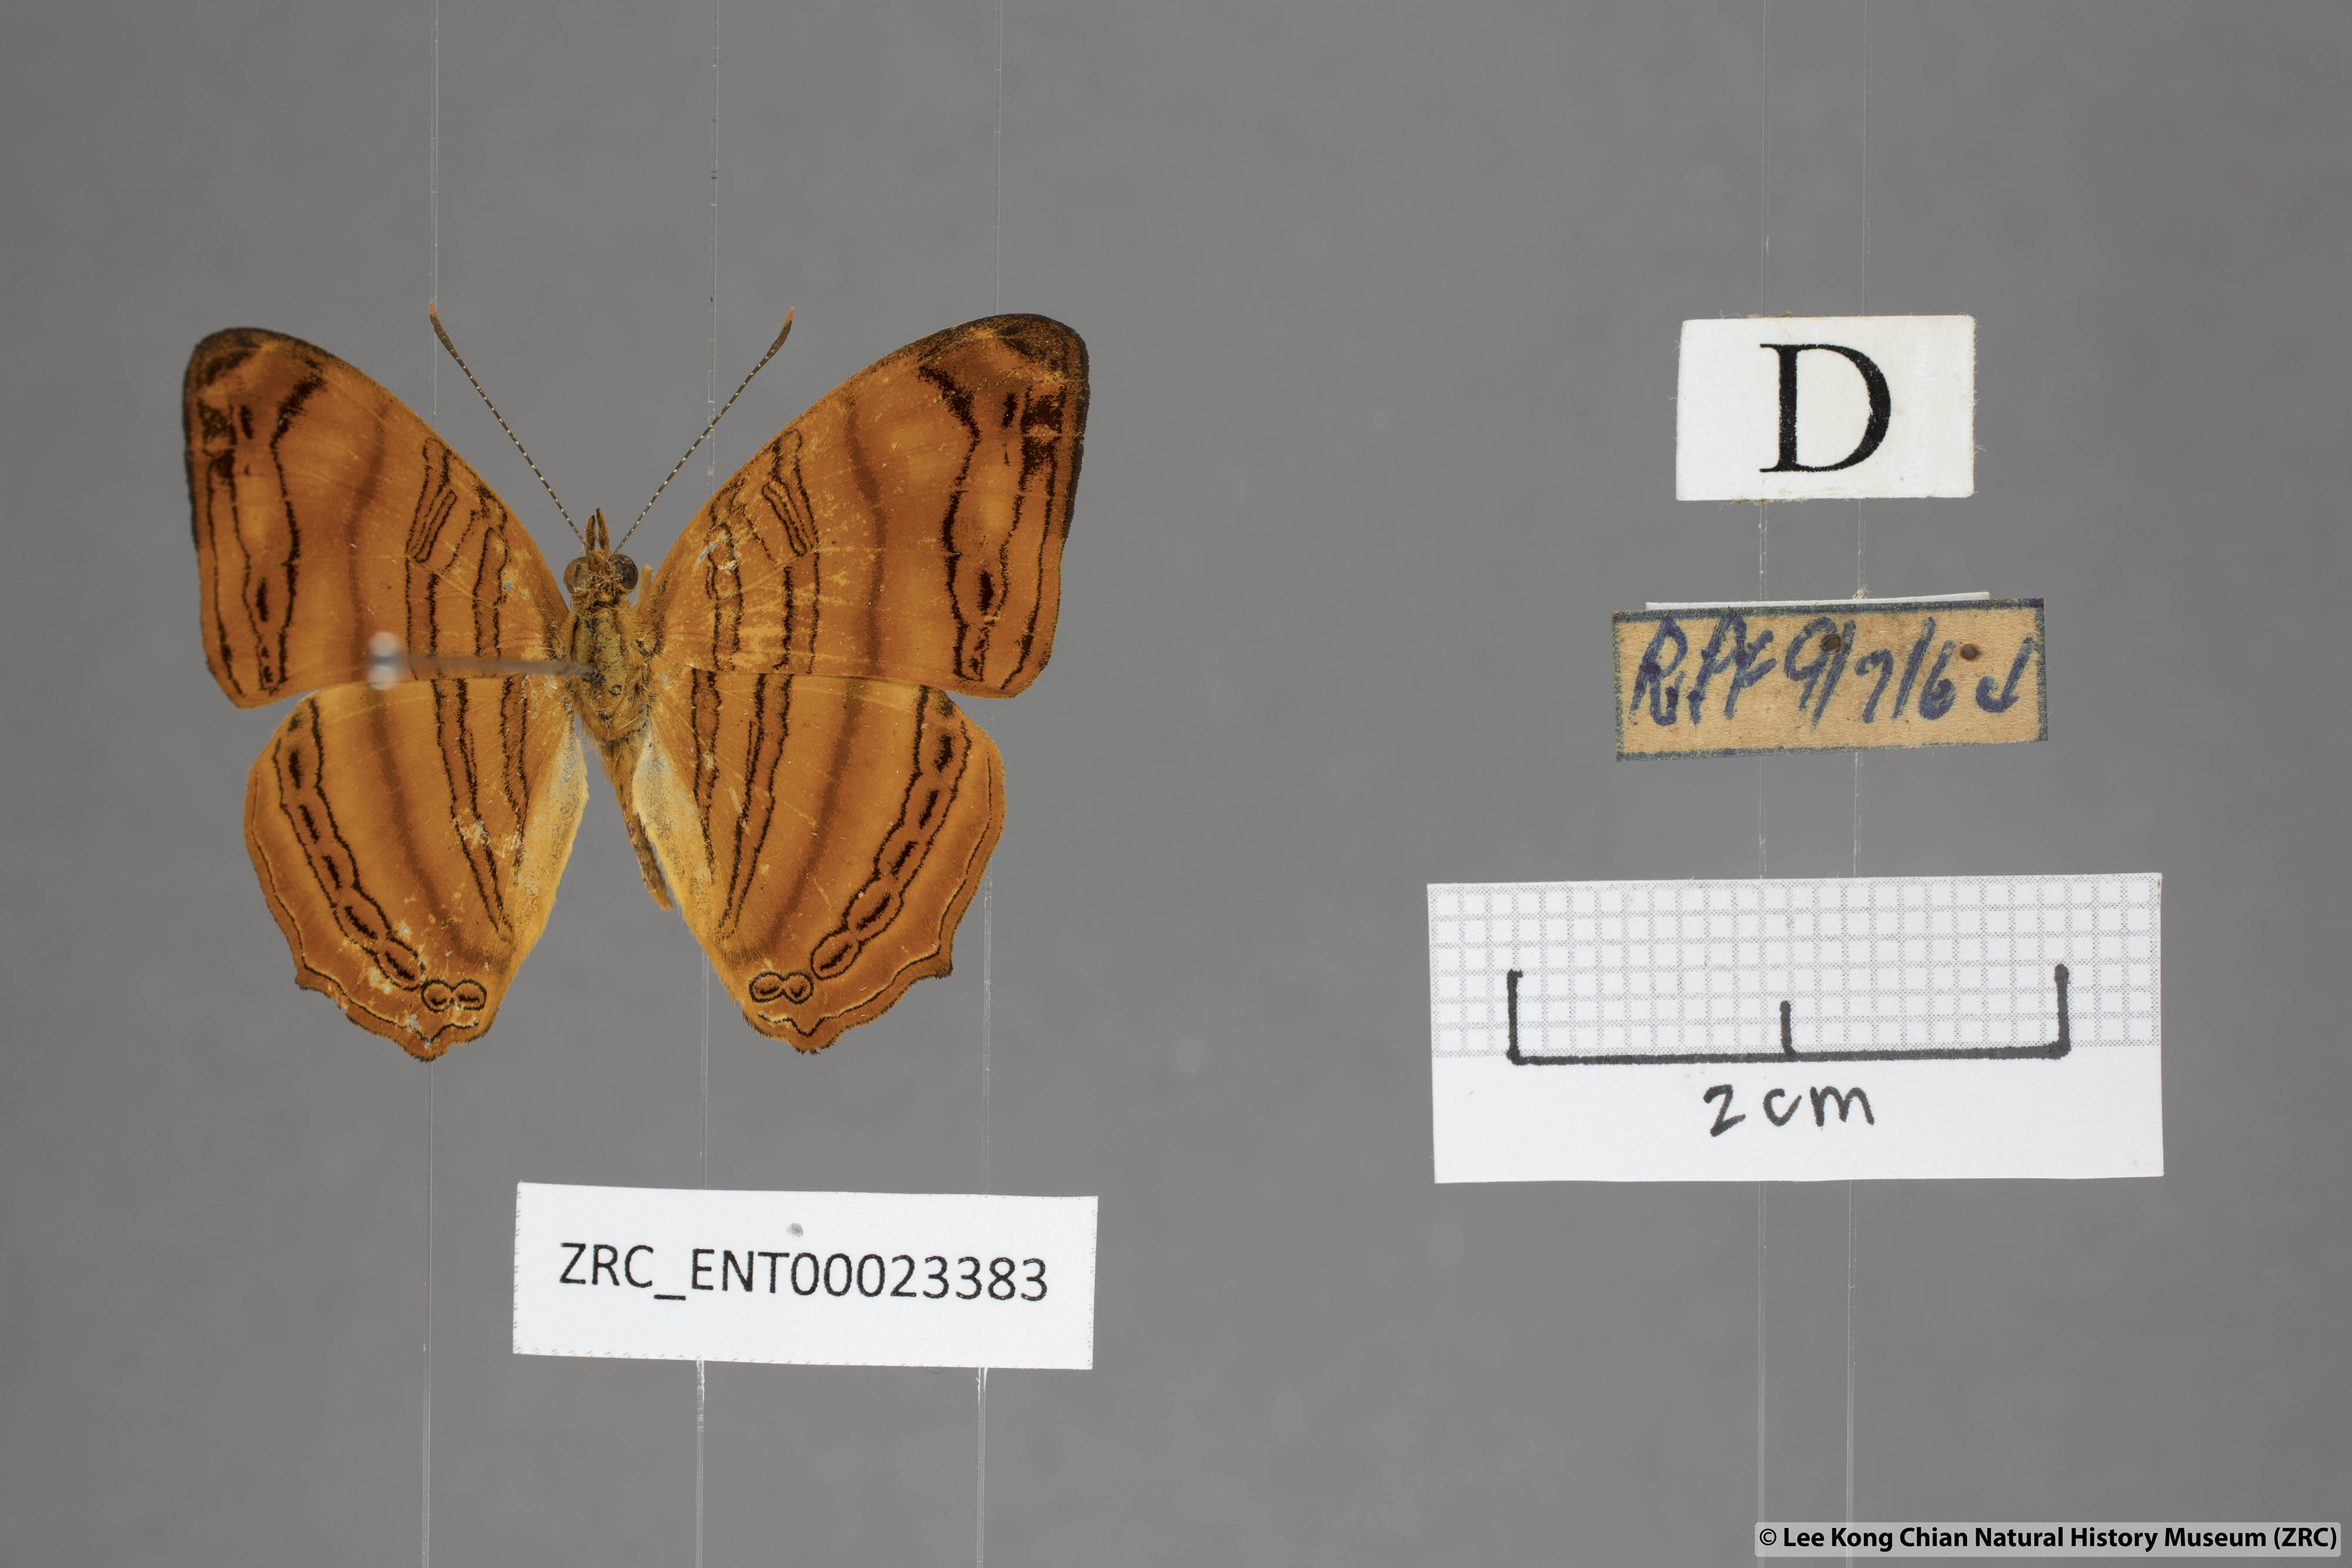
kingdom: Animalia
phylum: Arthropoda
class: Insecta
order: Lepidoptera
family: Nymphalidae
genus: Chersonesia
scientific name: Chersonesia rahria
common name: Wavy maplet
